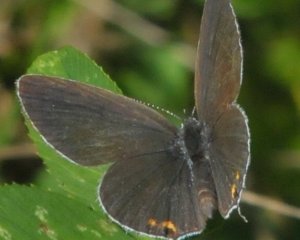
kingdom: Animalia
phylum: Arthropoda
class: Insecta
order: Lepidoptera
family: Lycaenidae
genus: Elkalyce
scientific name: Elkalyce comyntas
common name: Eastern Tailed-Blue
